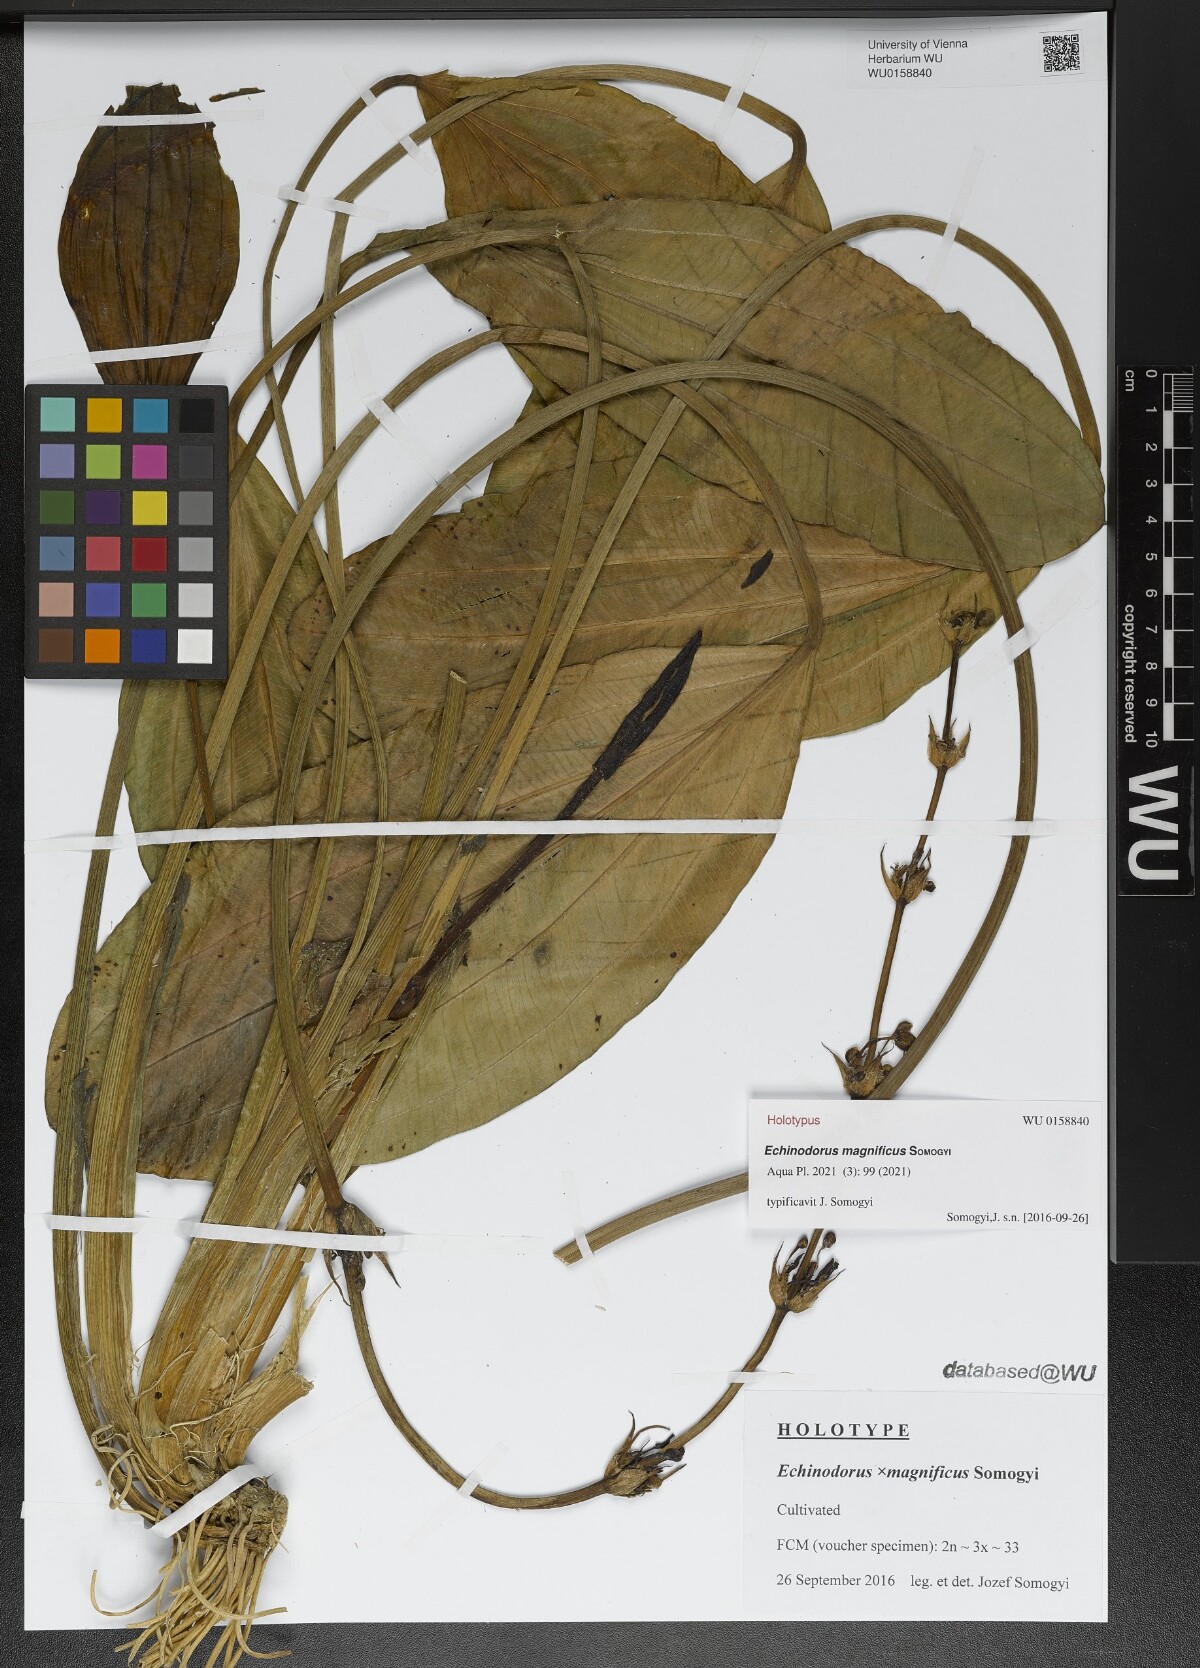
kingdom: Plantae
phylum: Tracheophyta
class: Liliopsida
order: Alismatales
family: Alismataceae
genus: Echinodorus
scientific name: Echinodorus
